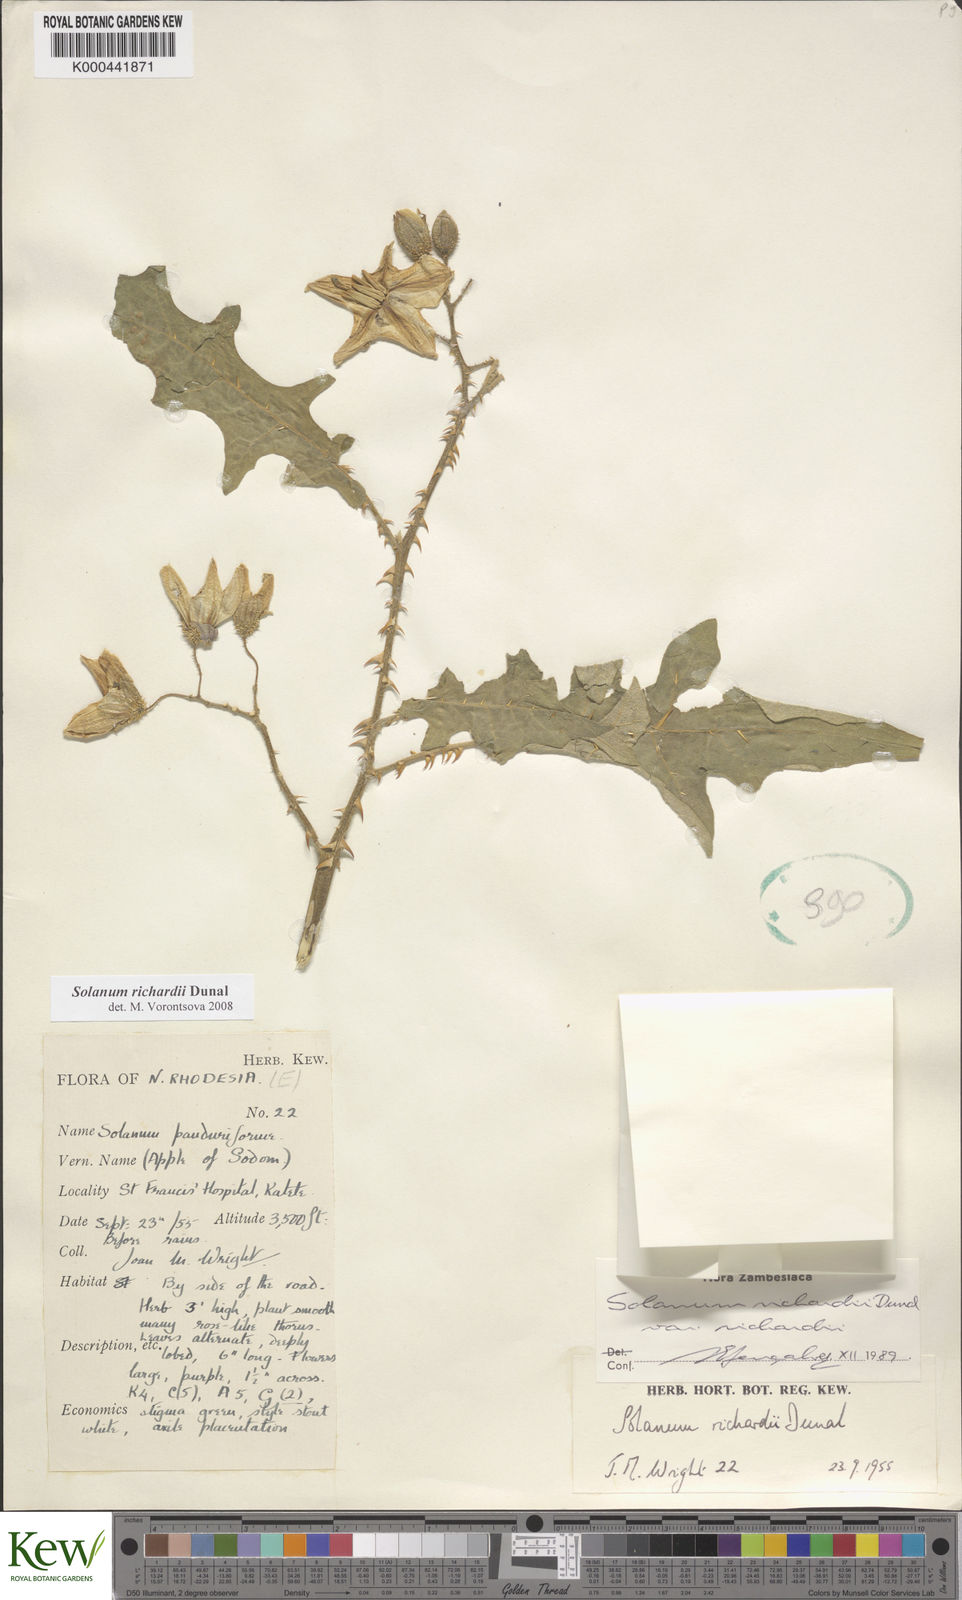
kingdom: Plantae
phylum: Tracheophyta
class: Magnoliopsida
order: Solanales
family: Solanaceae
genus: Solanum
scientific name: Solanum richardii
